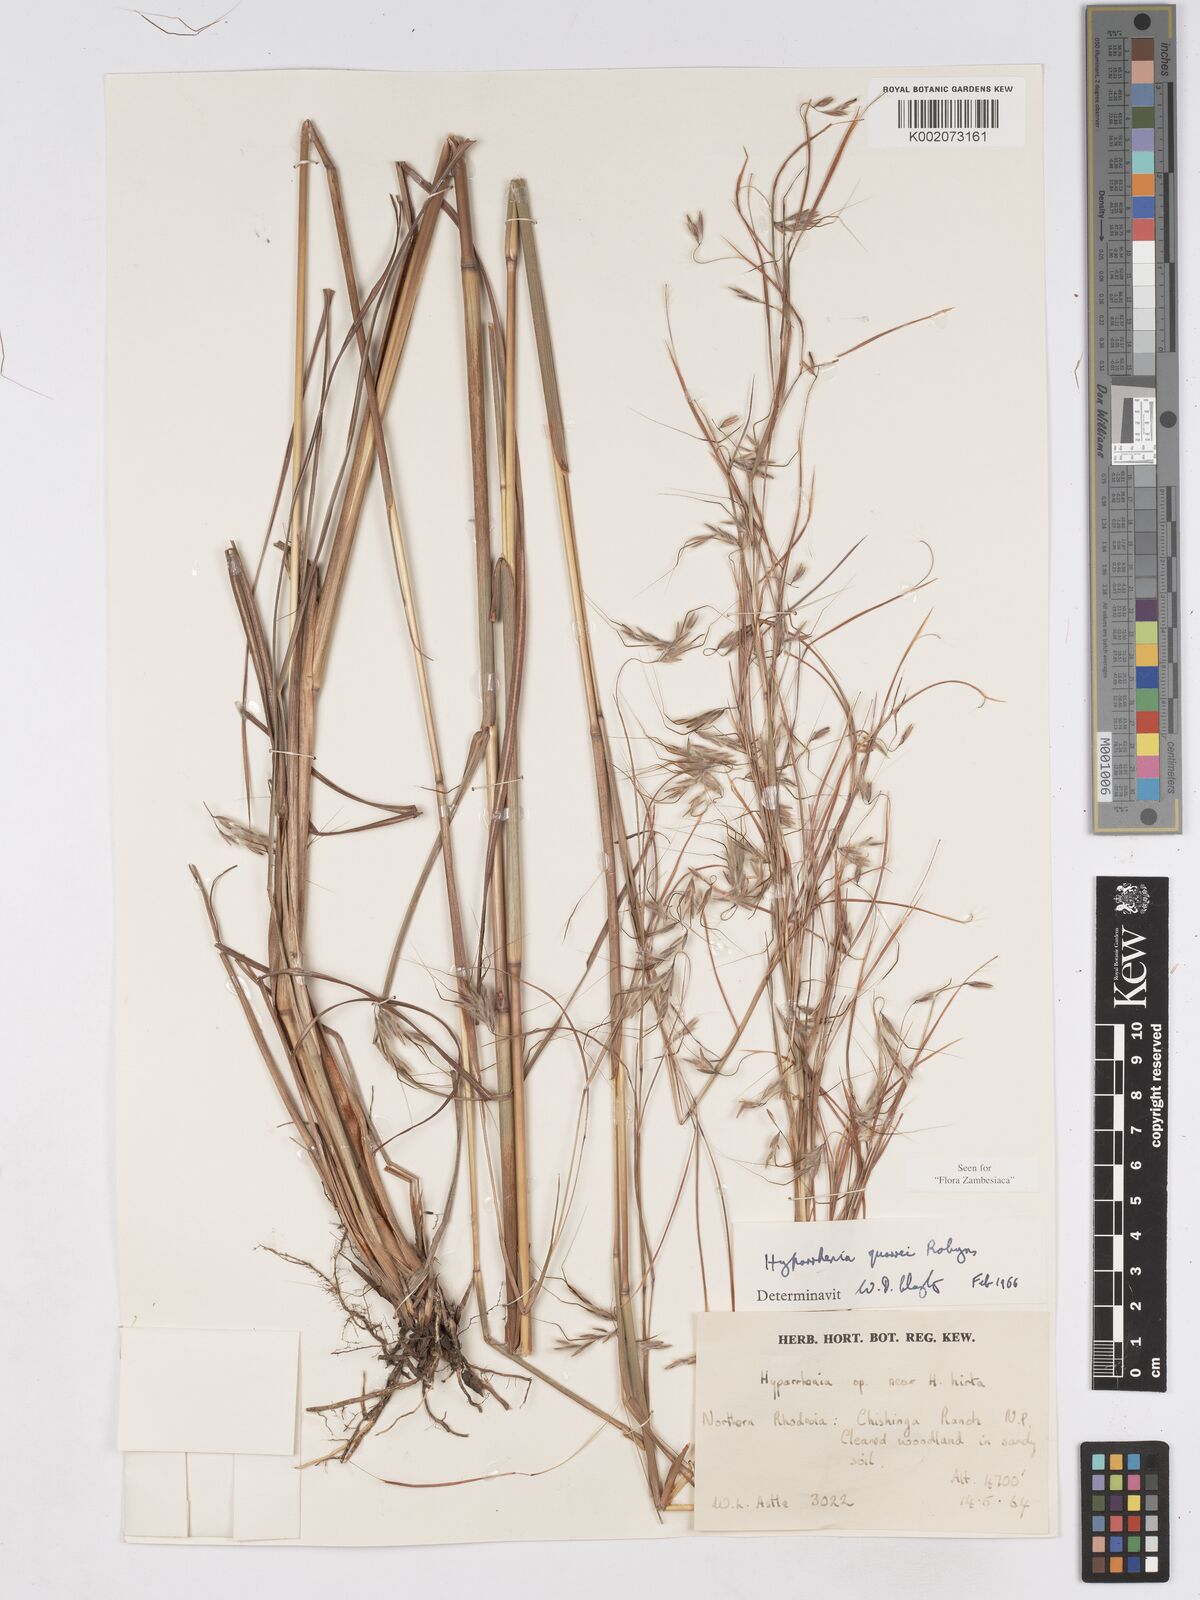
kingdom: Plantae
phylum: Tracheophyta
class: Liliopsida
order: Poales
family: Poaceae
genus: Hyparrhenia
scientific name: Hyparrhenia quarrei
